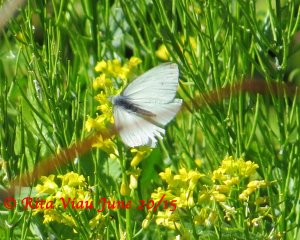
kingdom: Animalia
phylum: Arthropoda
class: Insecta
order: Lepidoptera
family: Pieridae
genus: Pieris
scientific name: Pieris rapae
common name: Cabbage White
